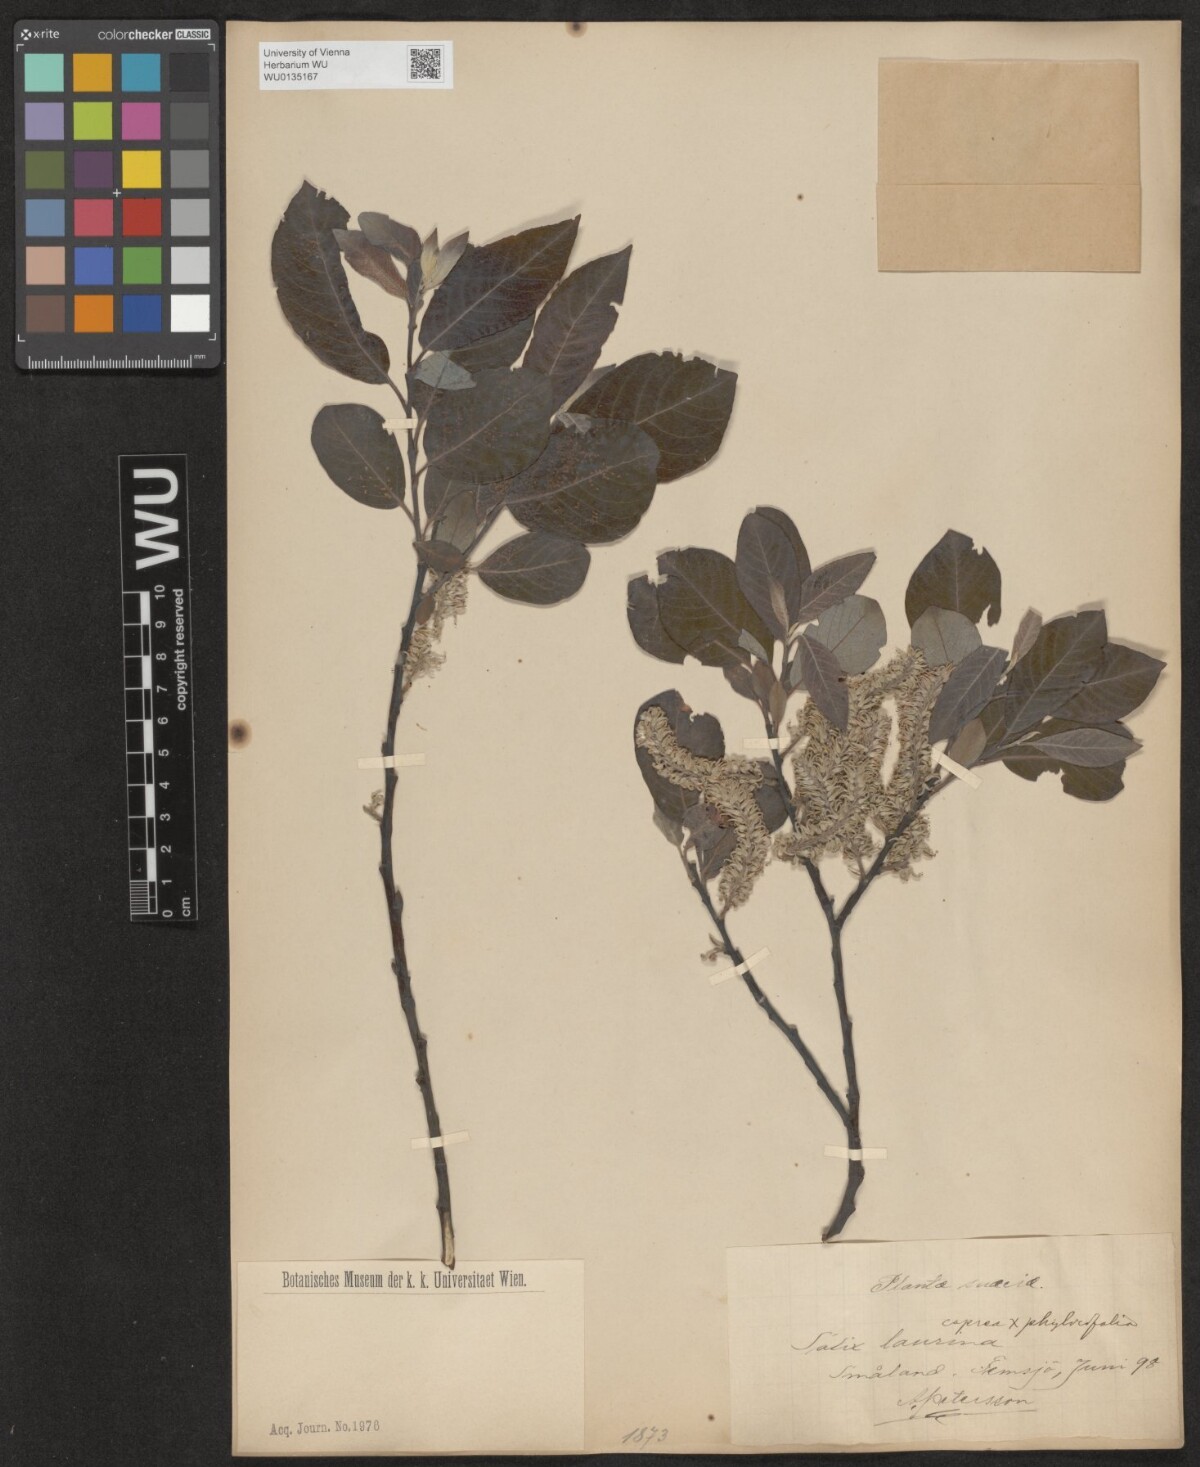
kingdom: Plantae
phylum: Tracheophyta
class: Magnoliopsida
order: Malpighiales
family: Salicaceae
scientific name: Salicaceae
